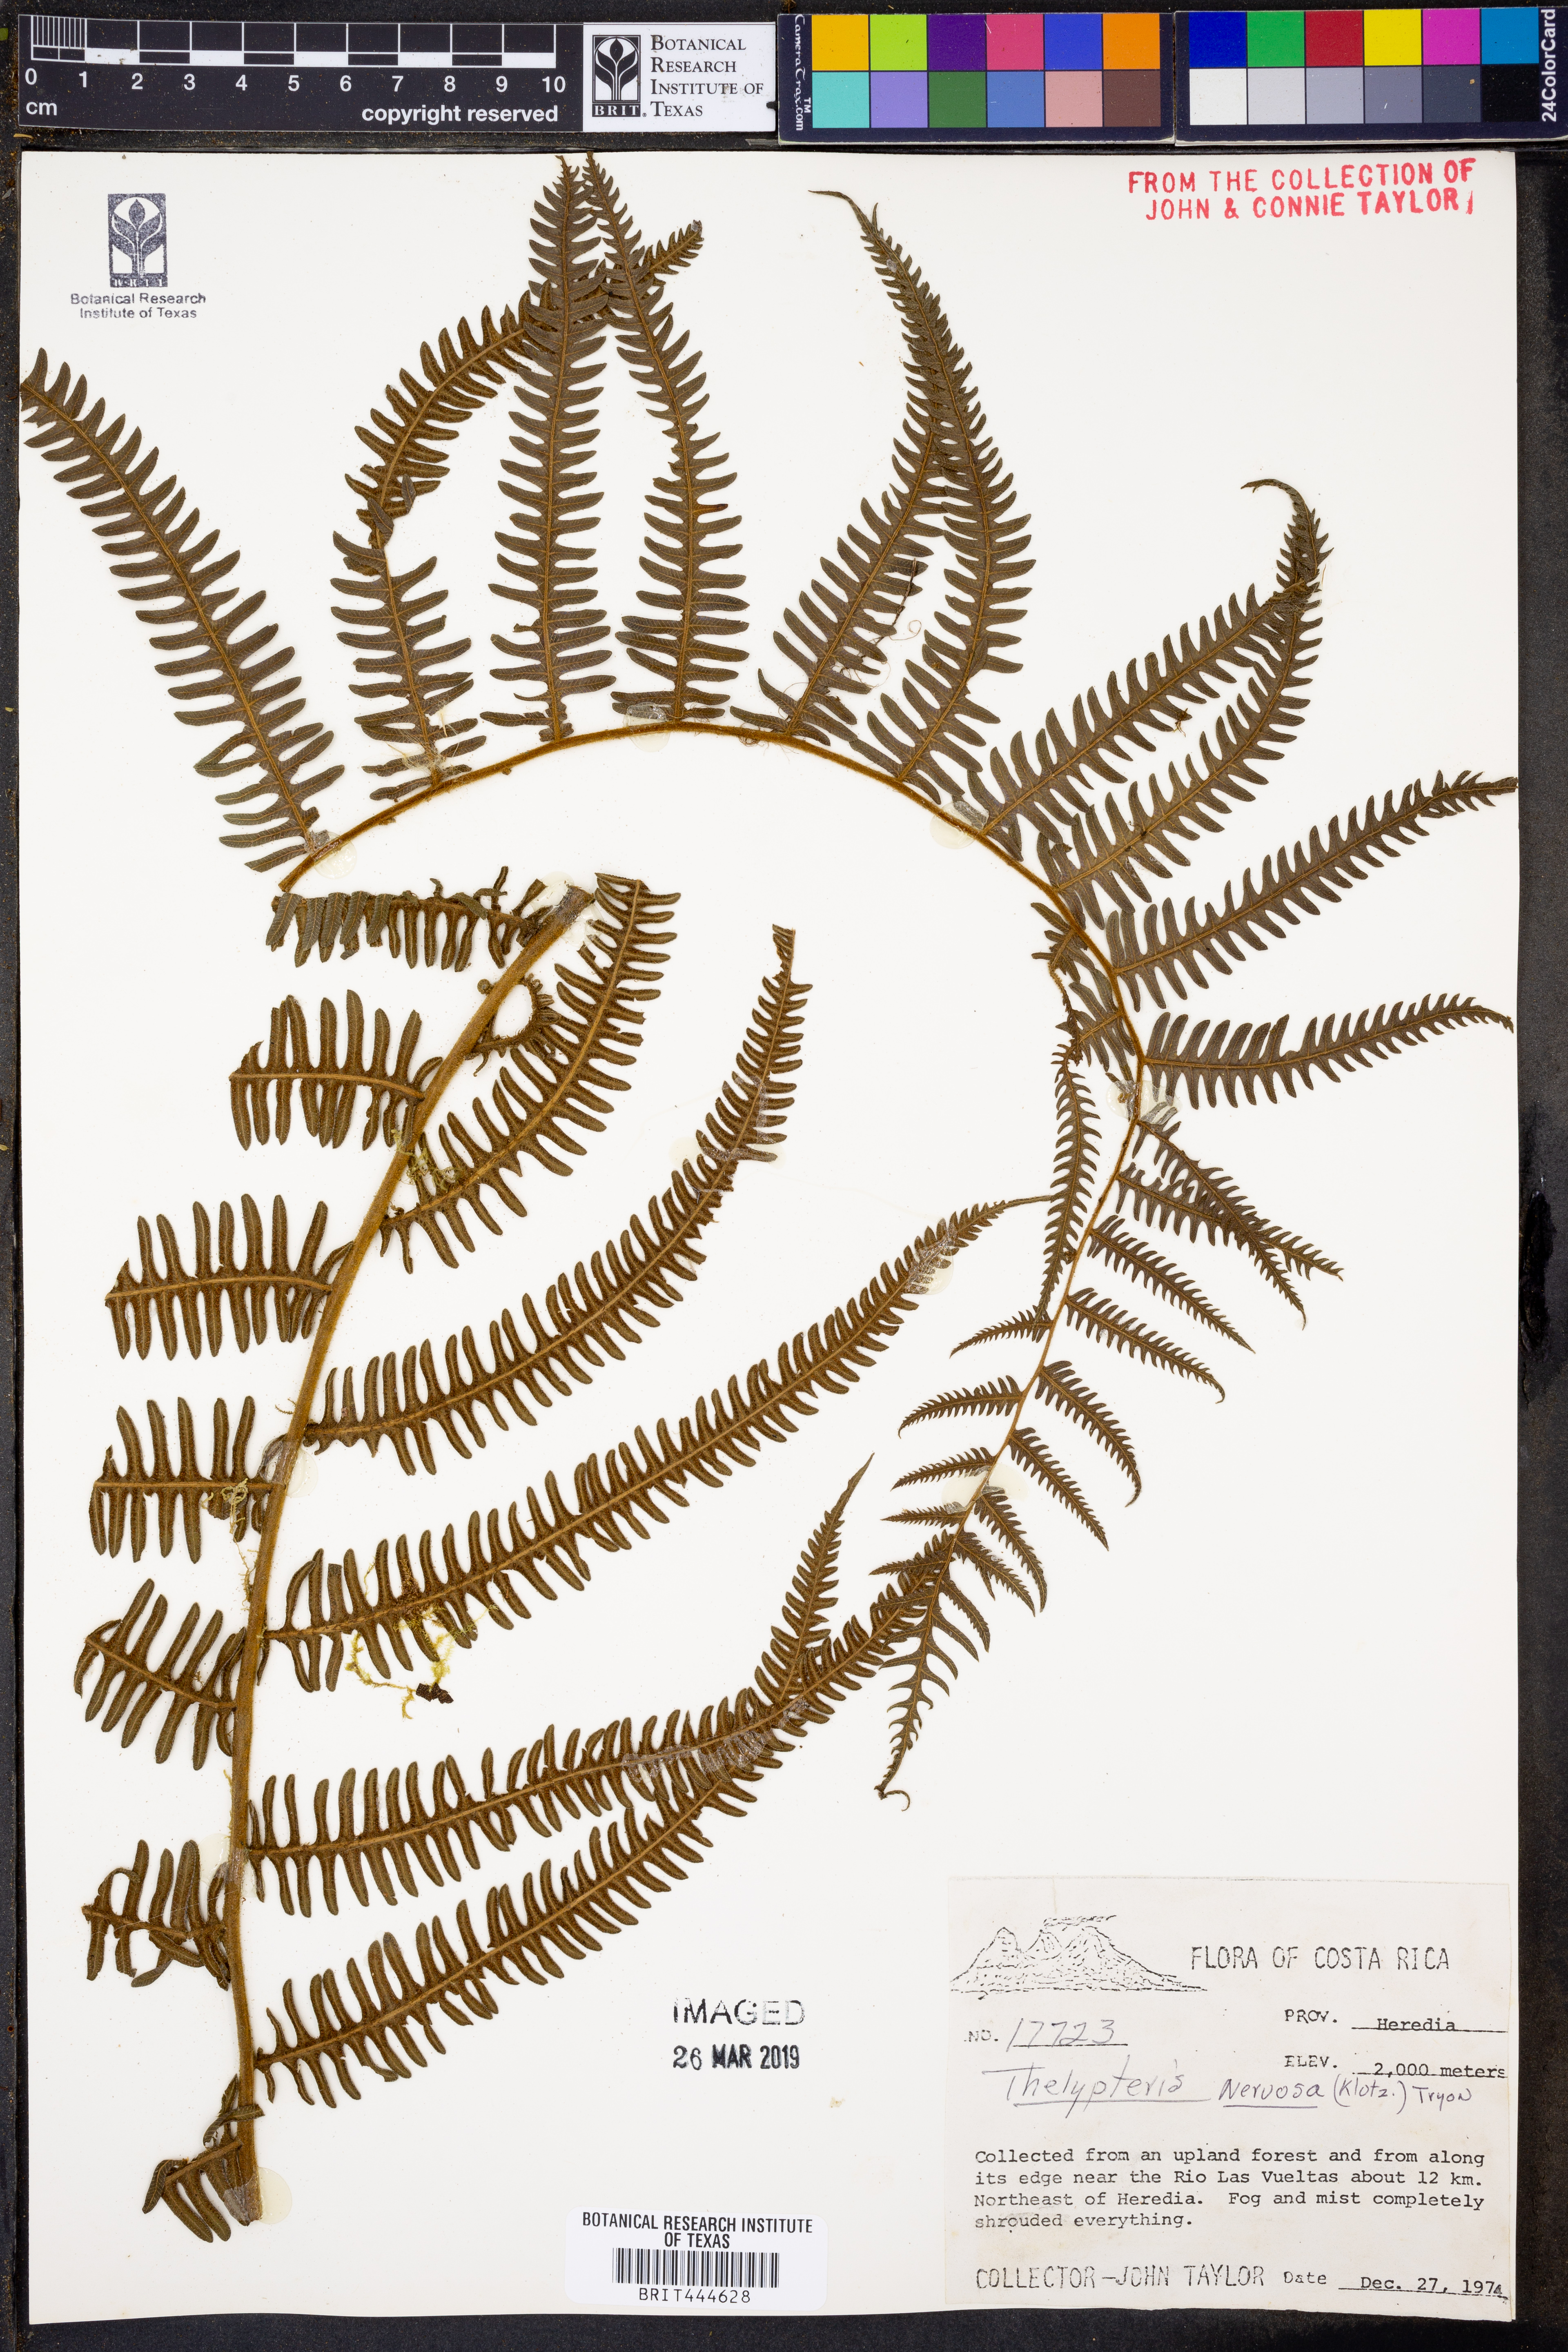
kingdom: Plantae
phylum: Tracheophyta
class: Polypodiopsida
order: Polypodiales
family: Thelypteridaceae
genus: Amauropelta
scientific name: Amauropelta rudis
